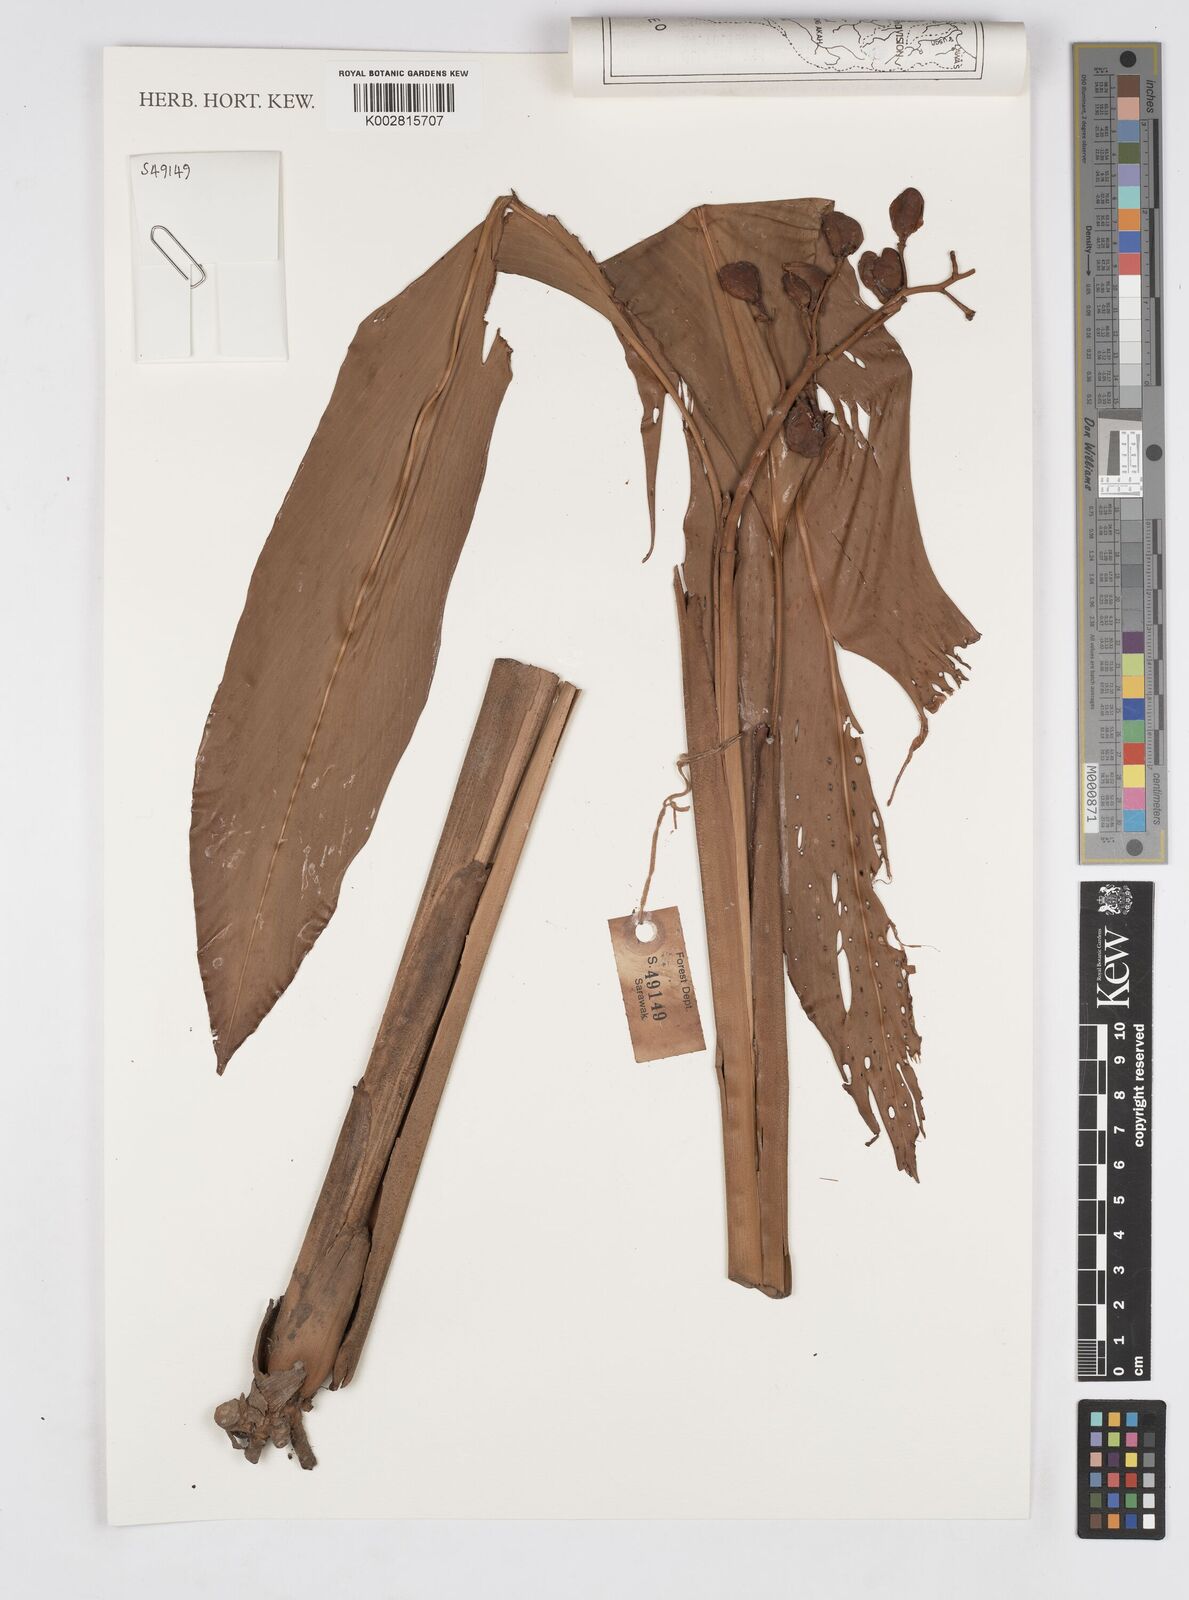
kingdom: Plantae
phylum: Tracheophyta
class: Liliopsida
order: Zingiberales
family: Zingiberaceae
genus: Alpinia
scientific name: Alpinia glabra
